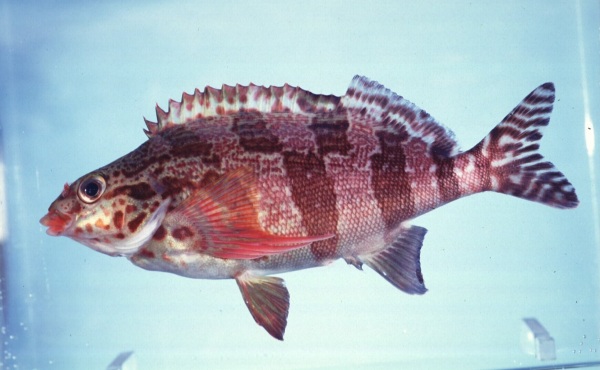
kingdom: Animalia
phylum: Chordata
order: Perciformes
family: Cheilodactylidae
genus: Cheilodactylus
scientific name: Cheilodactylus fasciatus
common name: Redfingers
